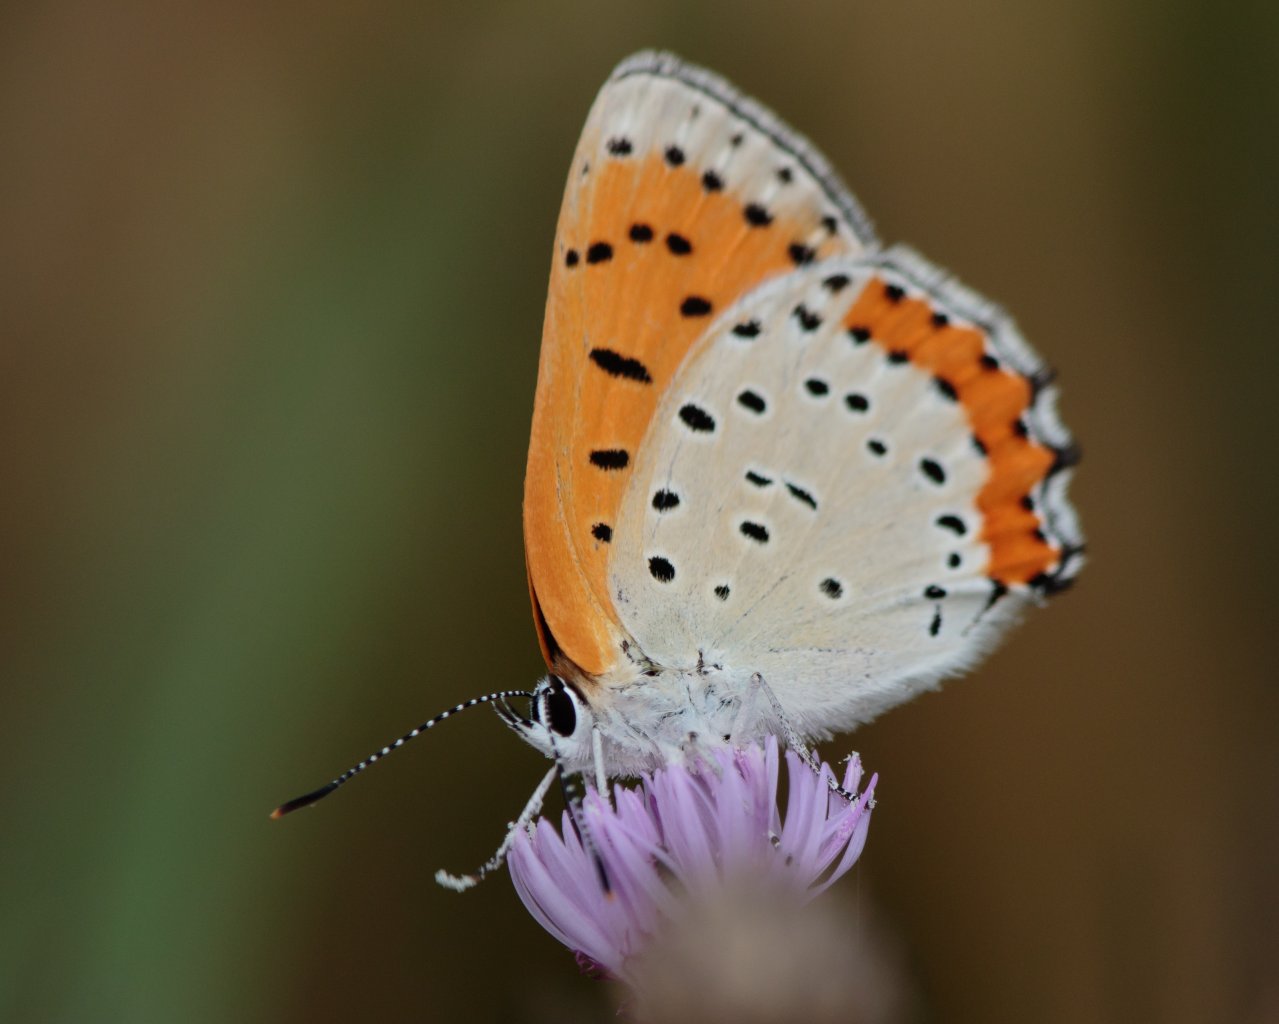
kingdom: Animalia
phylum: Arthropoda
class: Insecta
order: Lepidoptera
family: Sesiidae
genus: Sesia
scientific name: Sesia Lycaena hyllus
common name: Bronze Copper
